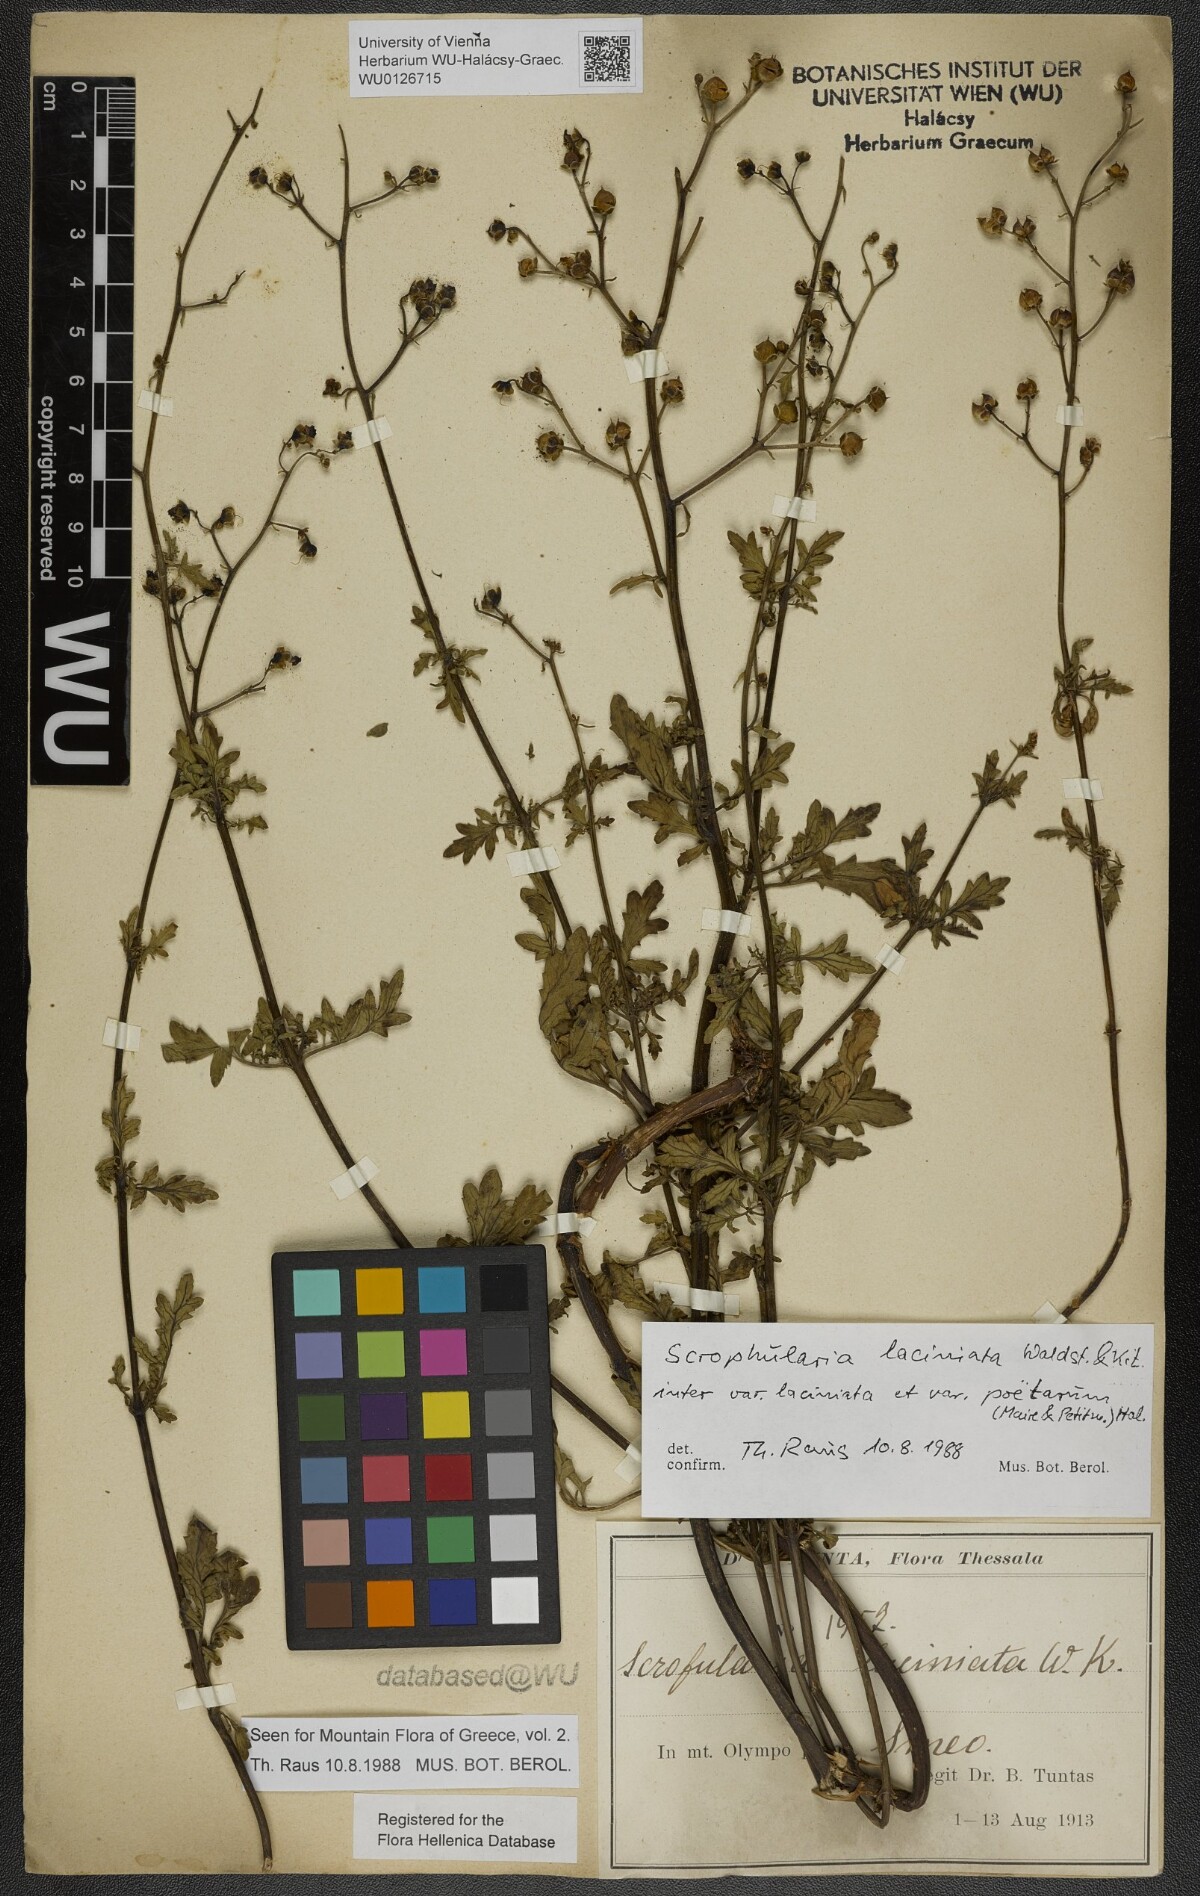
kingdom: Plantae
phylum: Tracheophyta
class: Magnoliopsida
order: Lamiales
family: Scrophulariaceae
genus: Scrophularia
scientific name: Scrophularia laciniata
